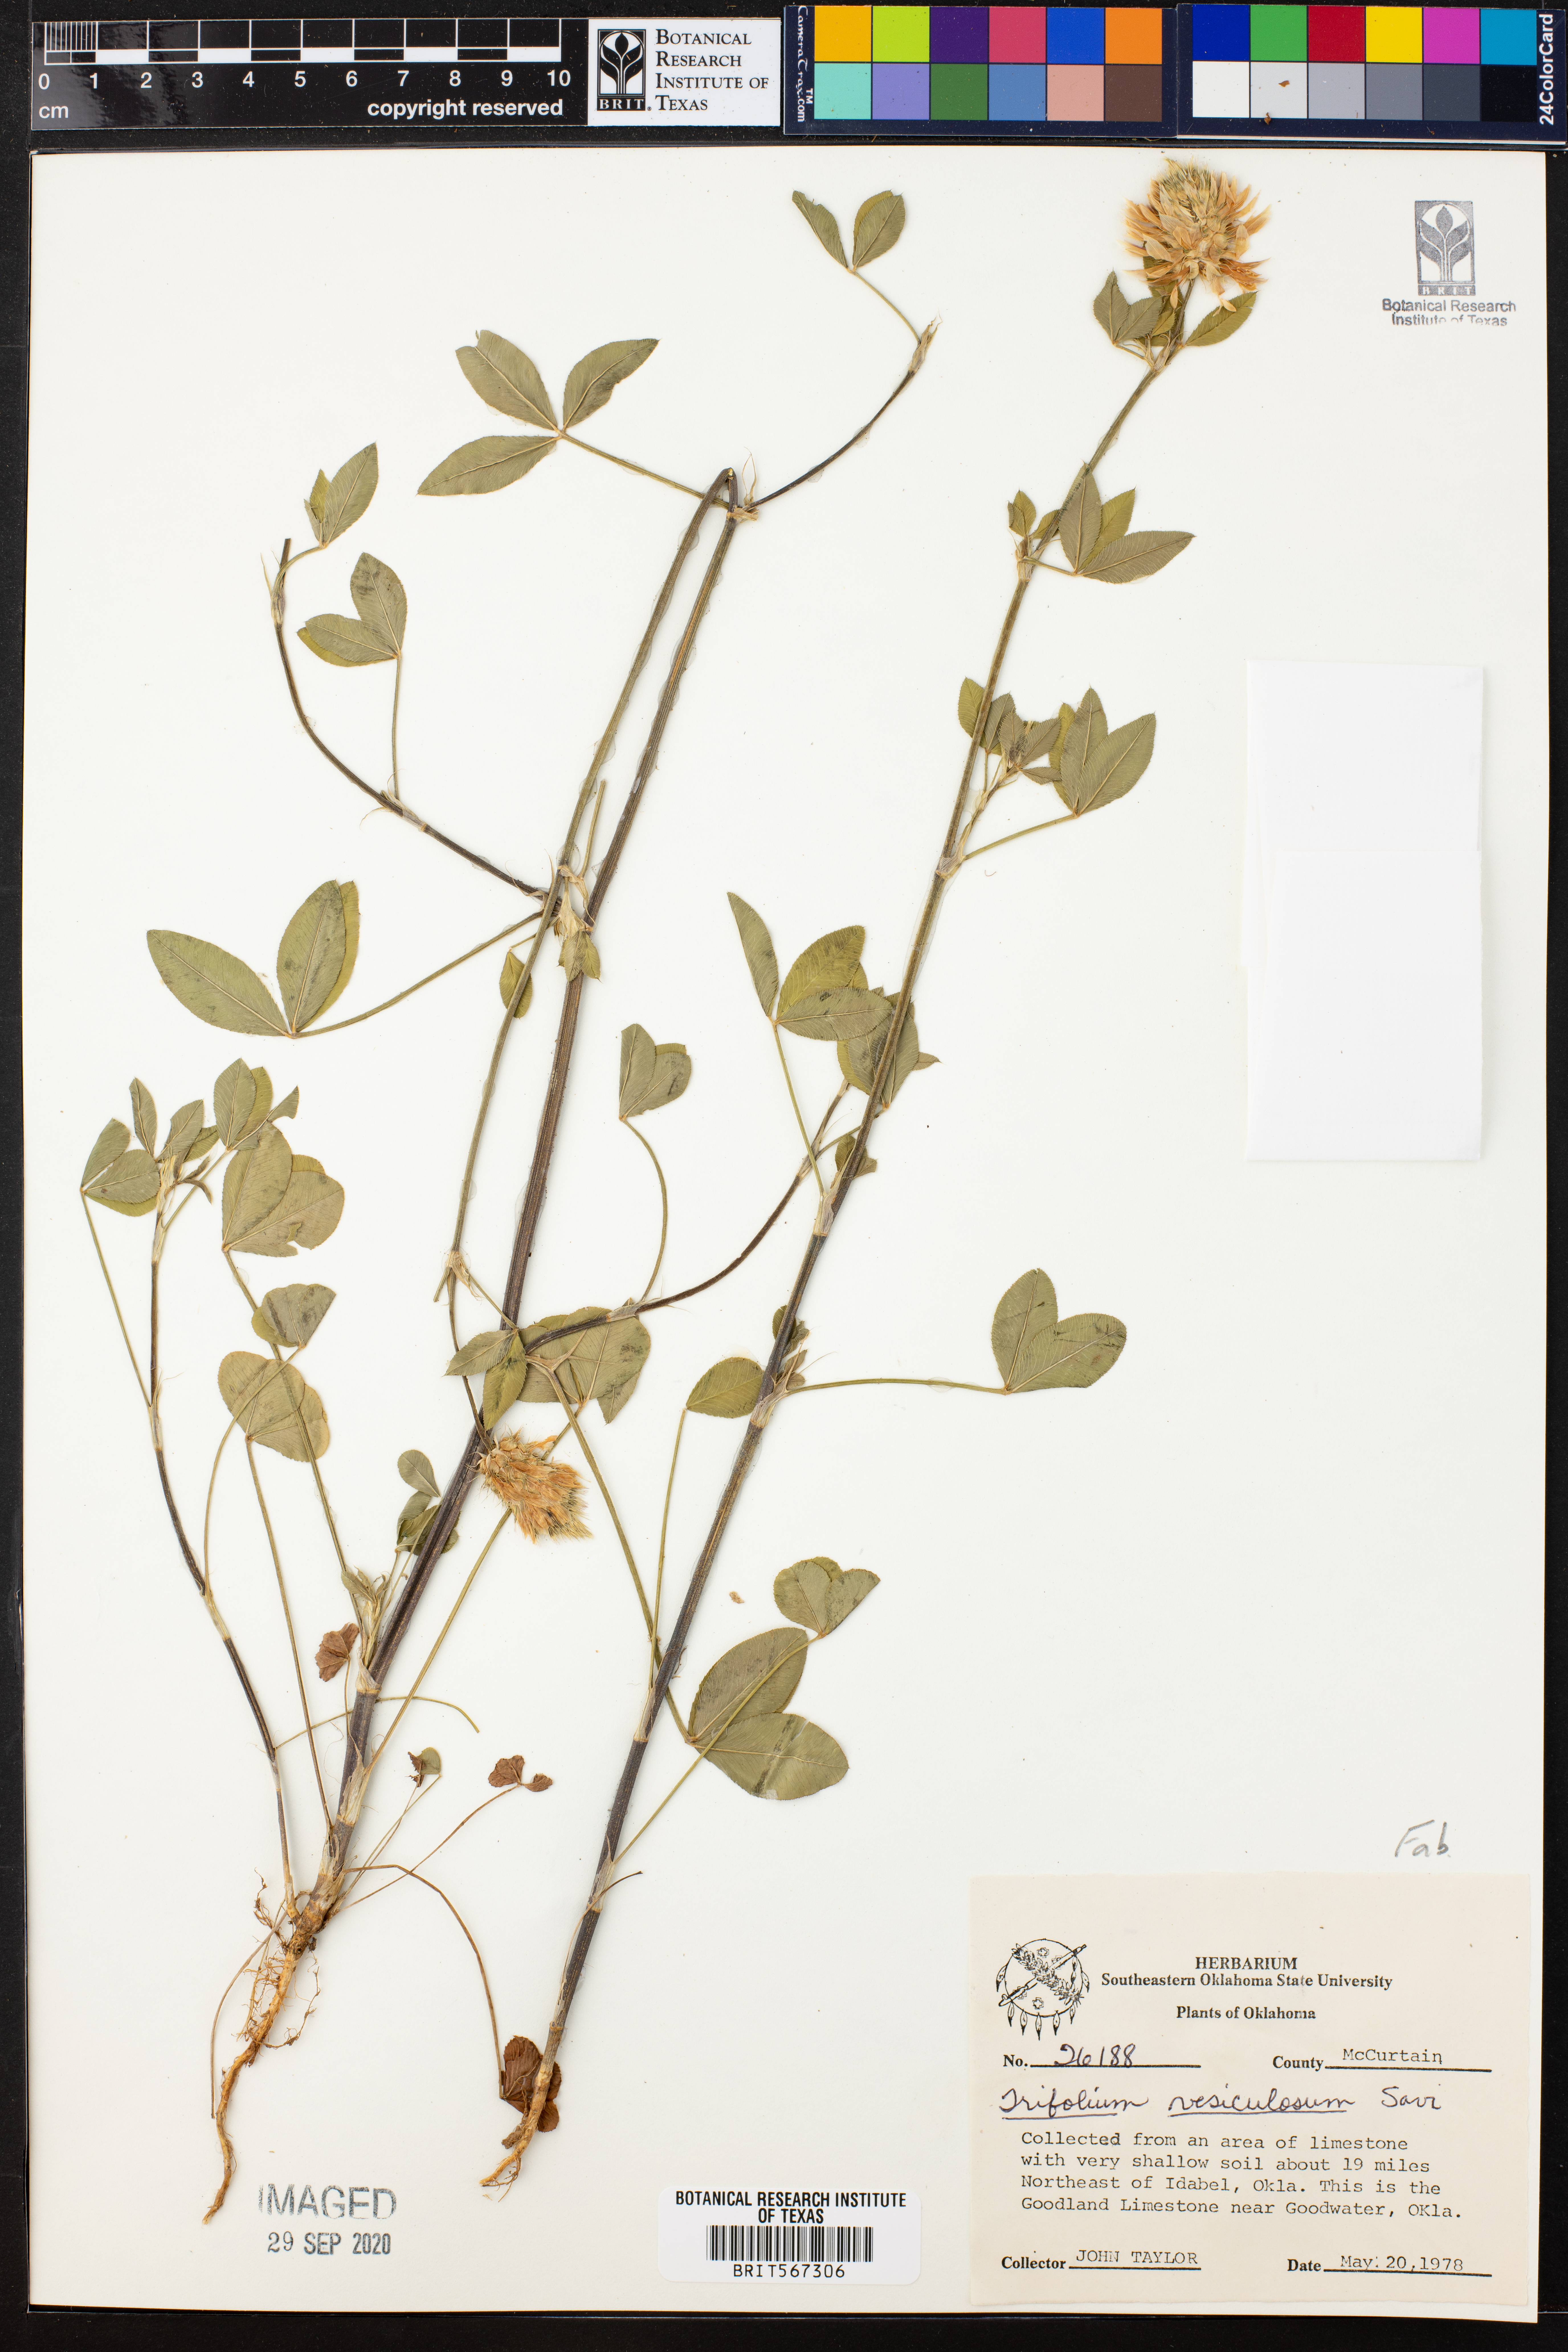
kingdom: Plantae
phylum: Tracheophyta
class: Magnoliopsida
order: Fabales
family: Fabaceae
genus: Trifolium
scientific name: Trifolium vesiculosum
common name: Arrowleaf clover
